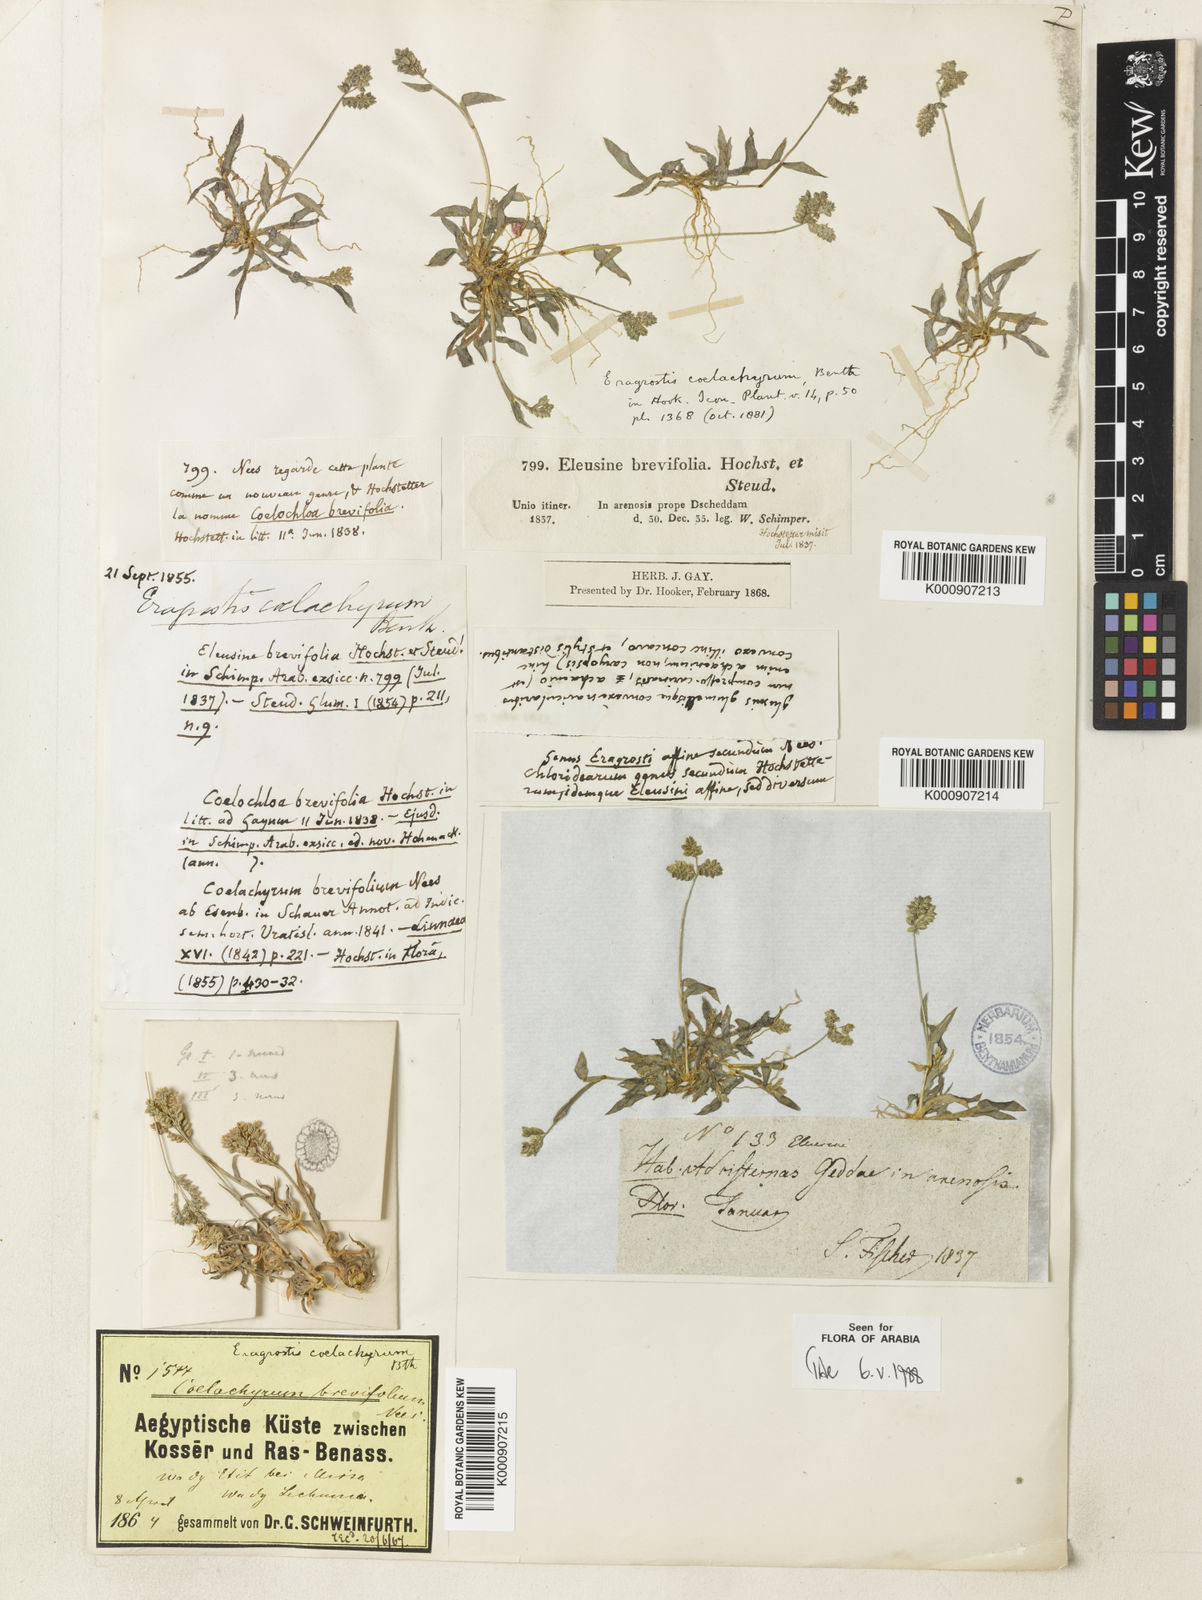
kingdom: Plantae
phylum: Tracheophyta
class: Liliopsida
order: Poales
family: Poaceae
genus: Coelachyrum
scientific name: Coelachyrum brevifolium
